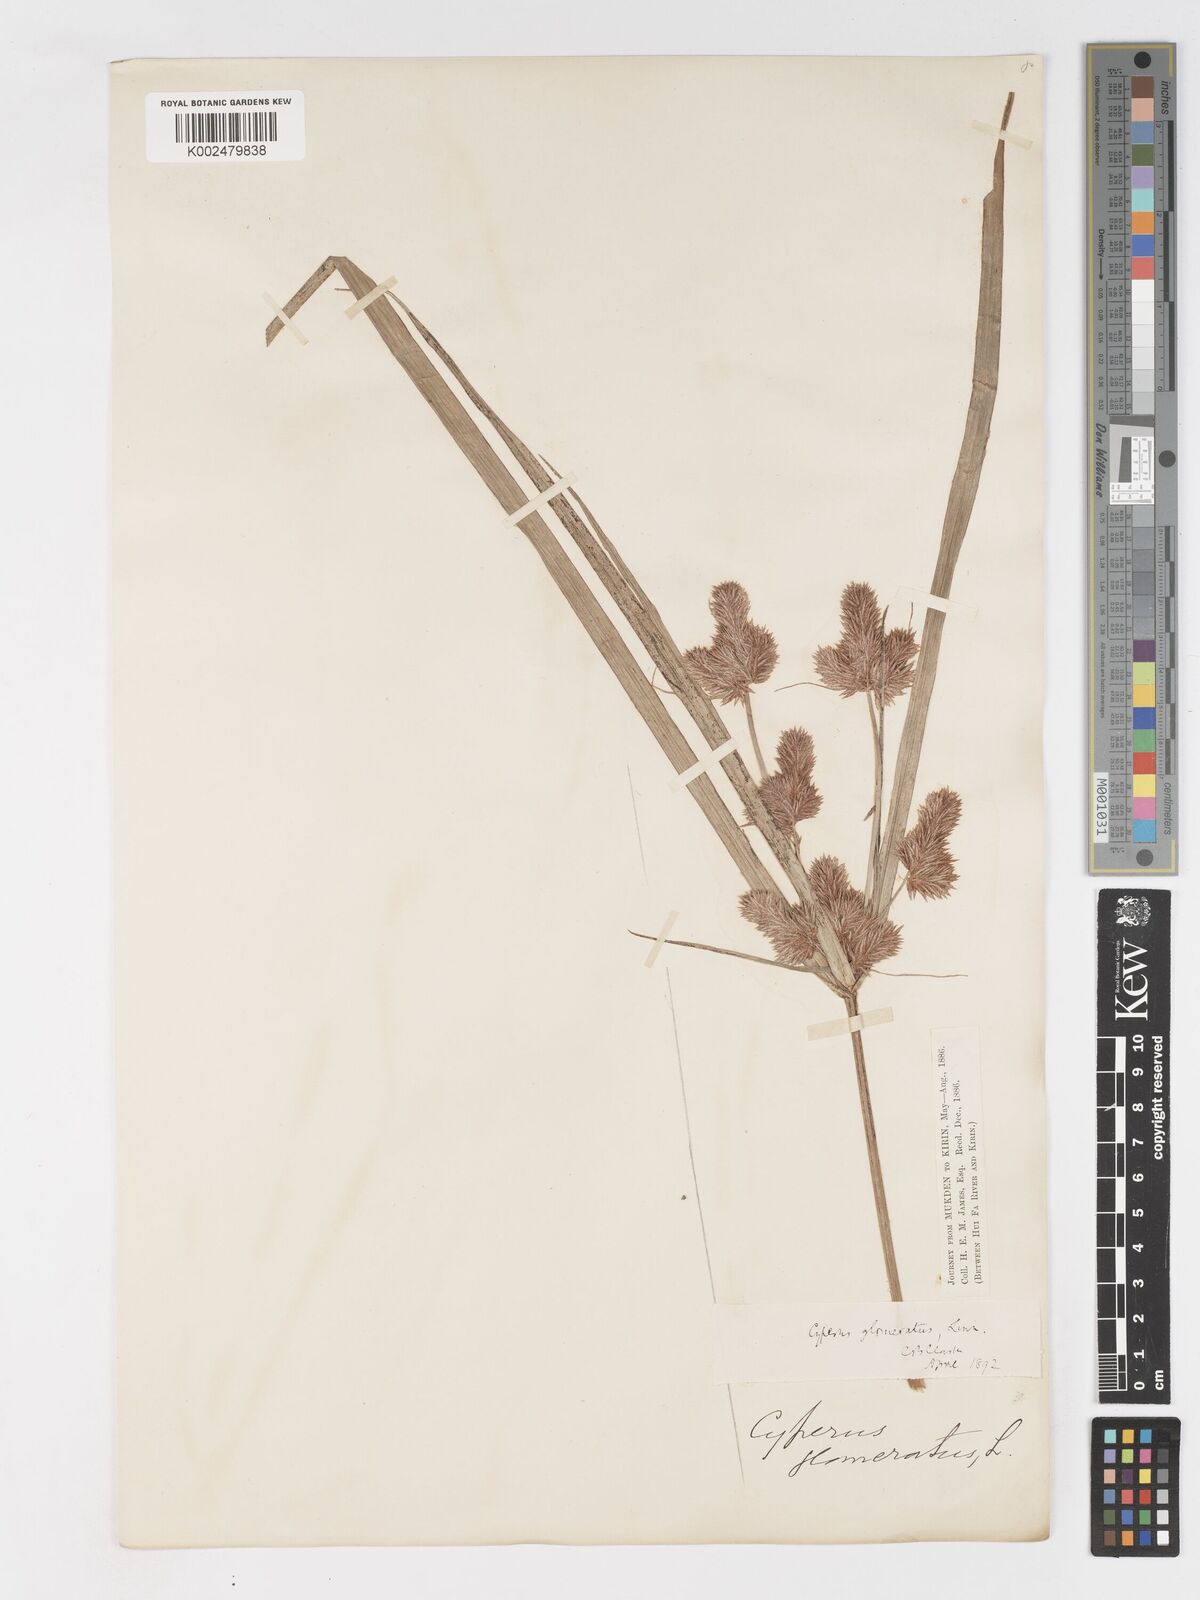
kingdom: Plantae
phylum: Tracheophyta
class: Liliopsida
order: Poales
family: Cyperaceae
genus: Cyperus
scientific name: Cyperus glomeratus
